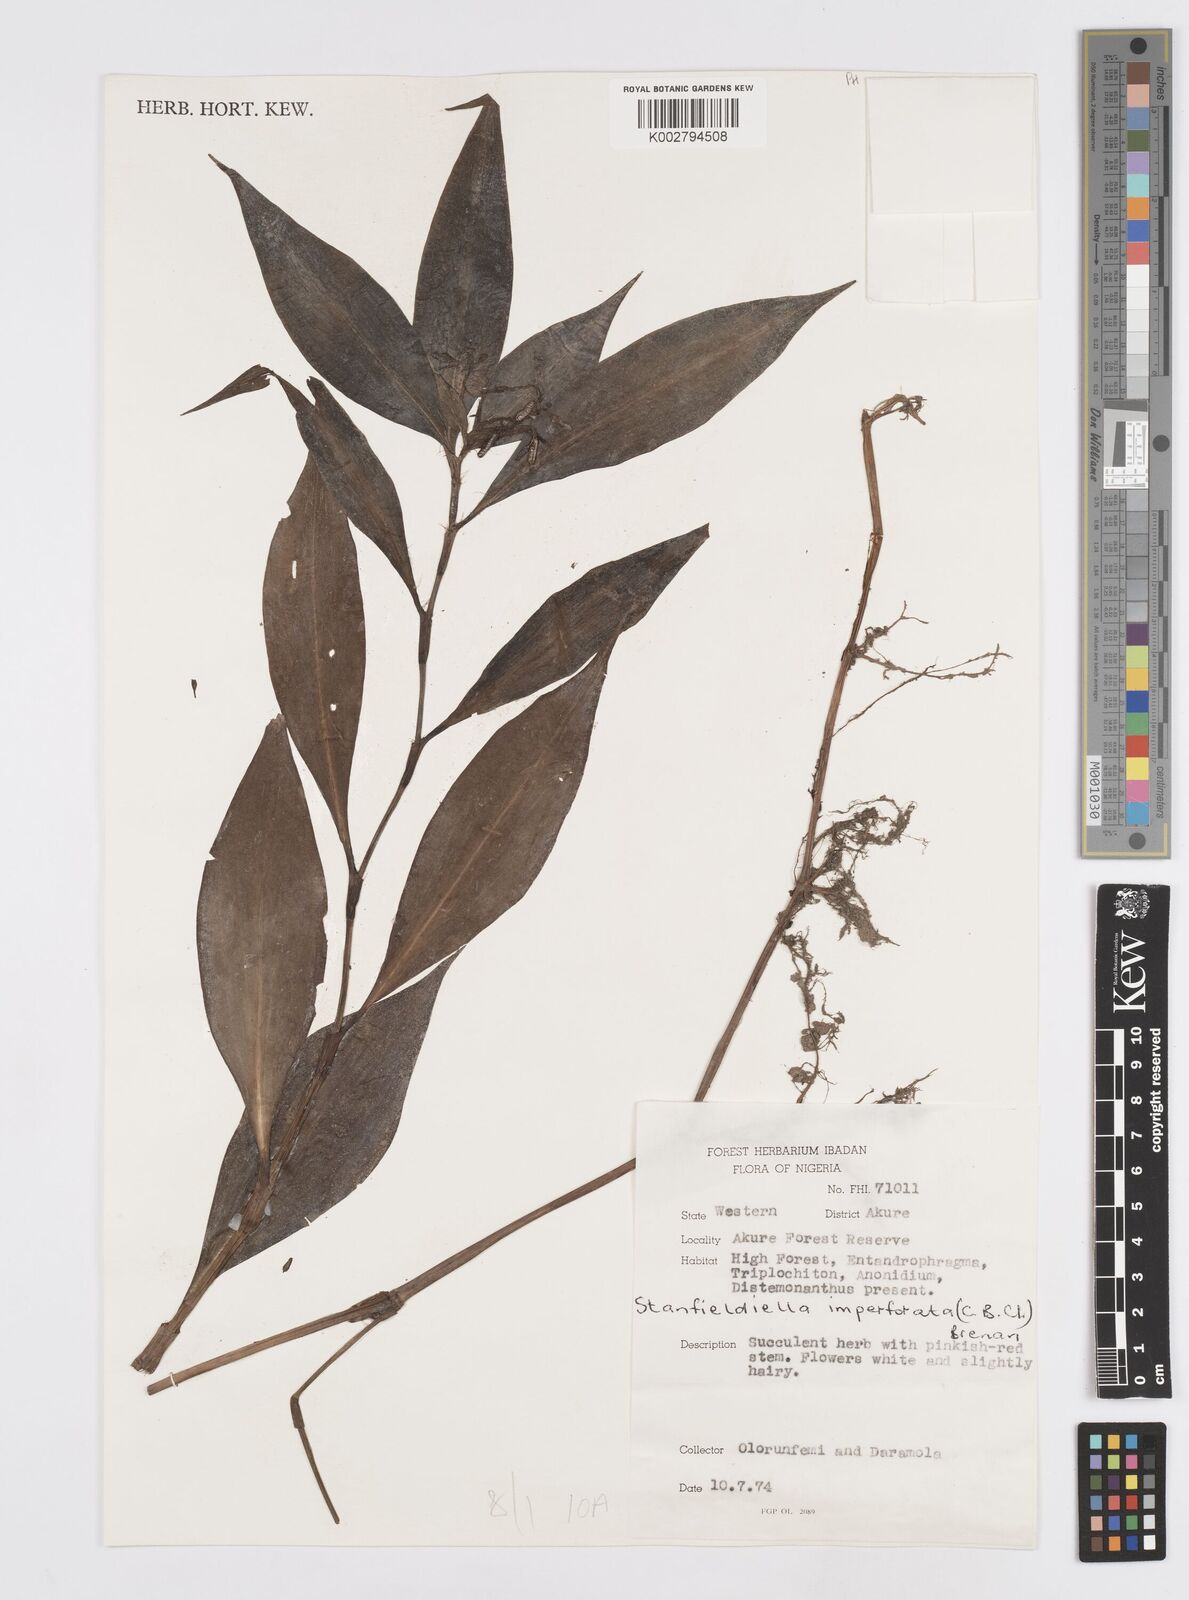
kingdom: Plantae
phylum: Tracheophyta
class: Liliopsida
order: Commelinales
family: Commelinaceae
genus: Stanfieldiella
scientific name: Stanfieldiella imperforata
